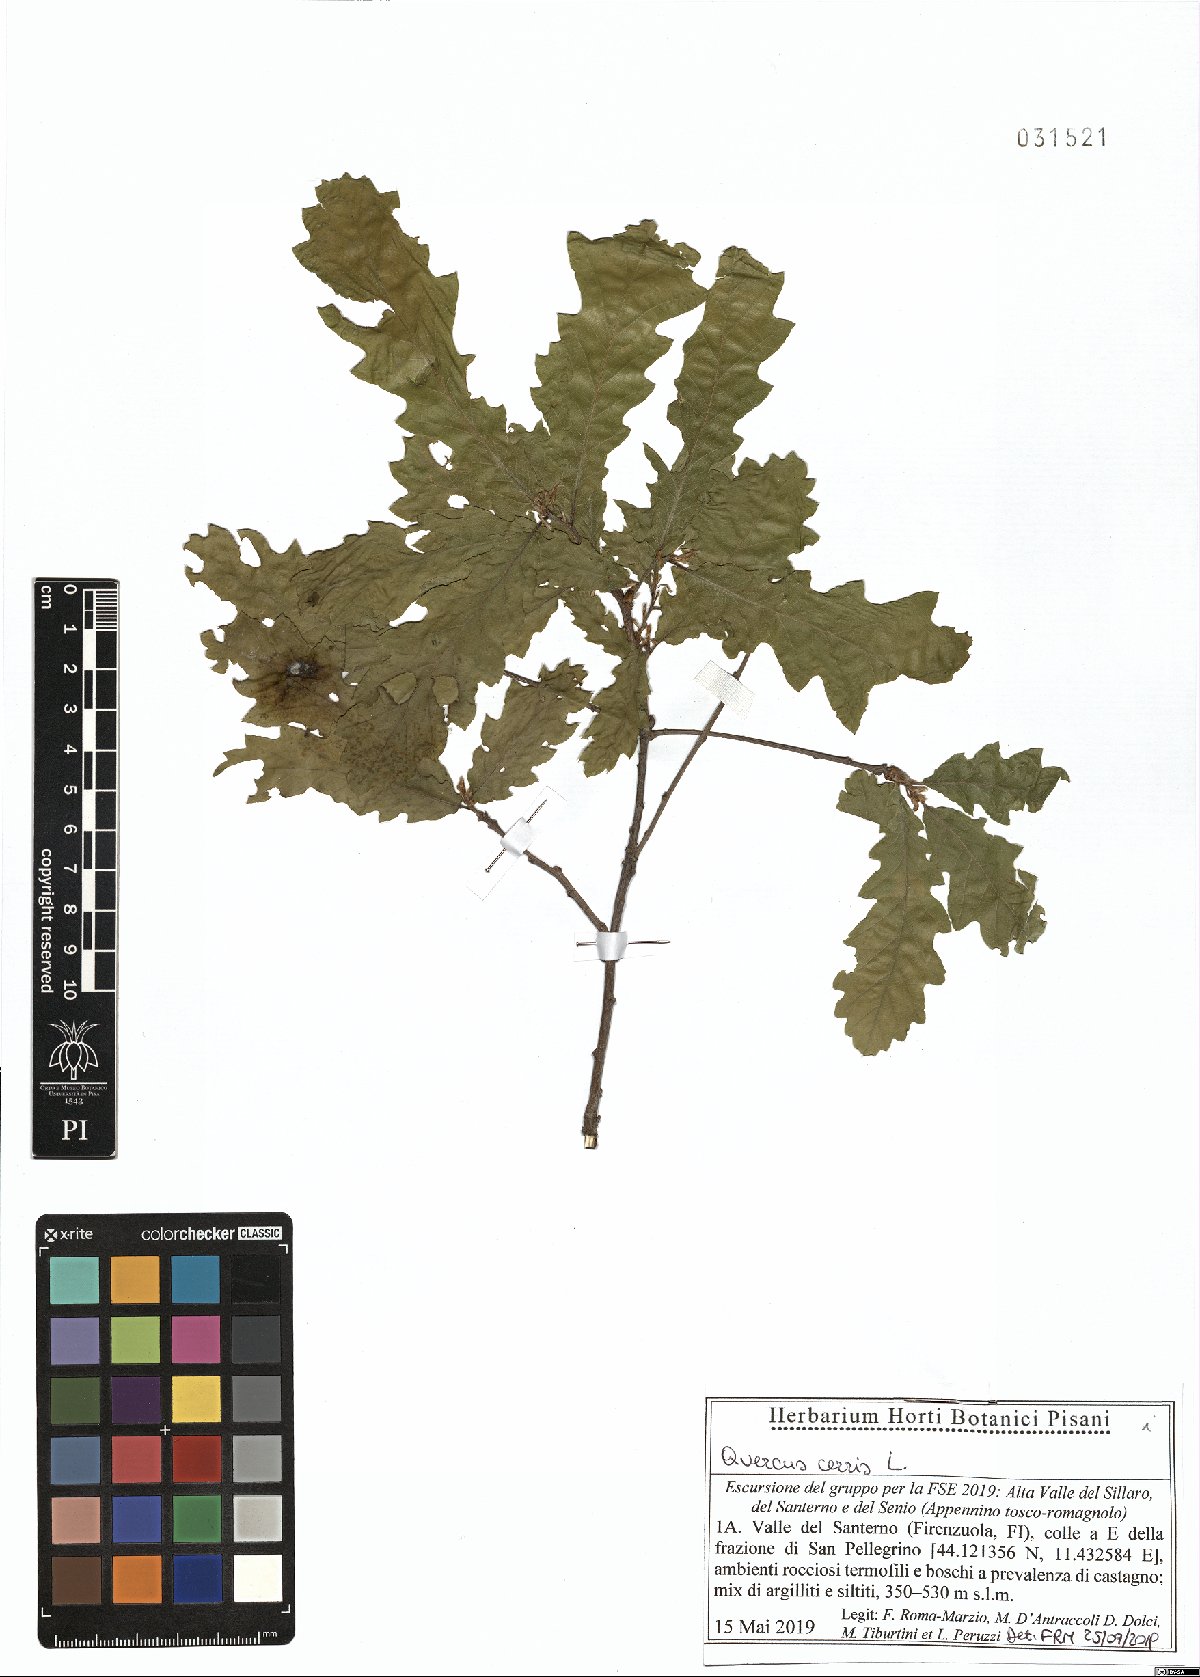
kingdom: Plantae
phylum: Tracheophyta
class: Magnoliopsida
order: Fagales
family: Fagaceae
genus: Quercus
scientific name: Quercus cerris
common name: Turkey oak
